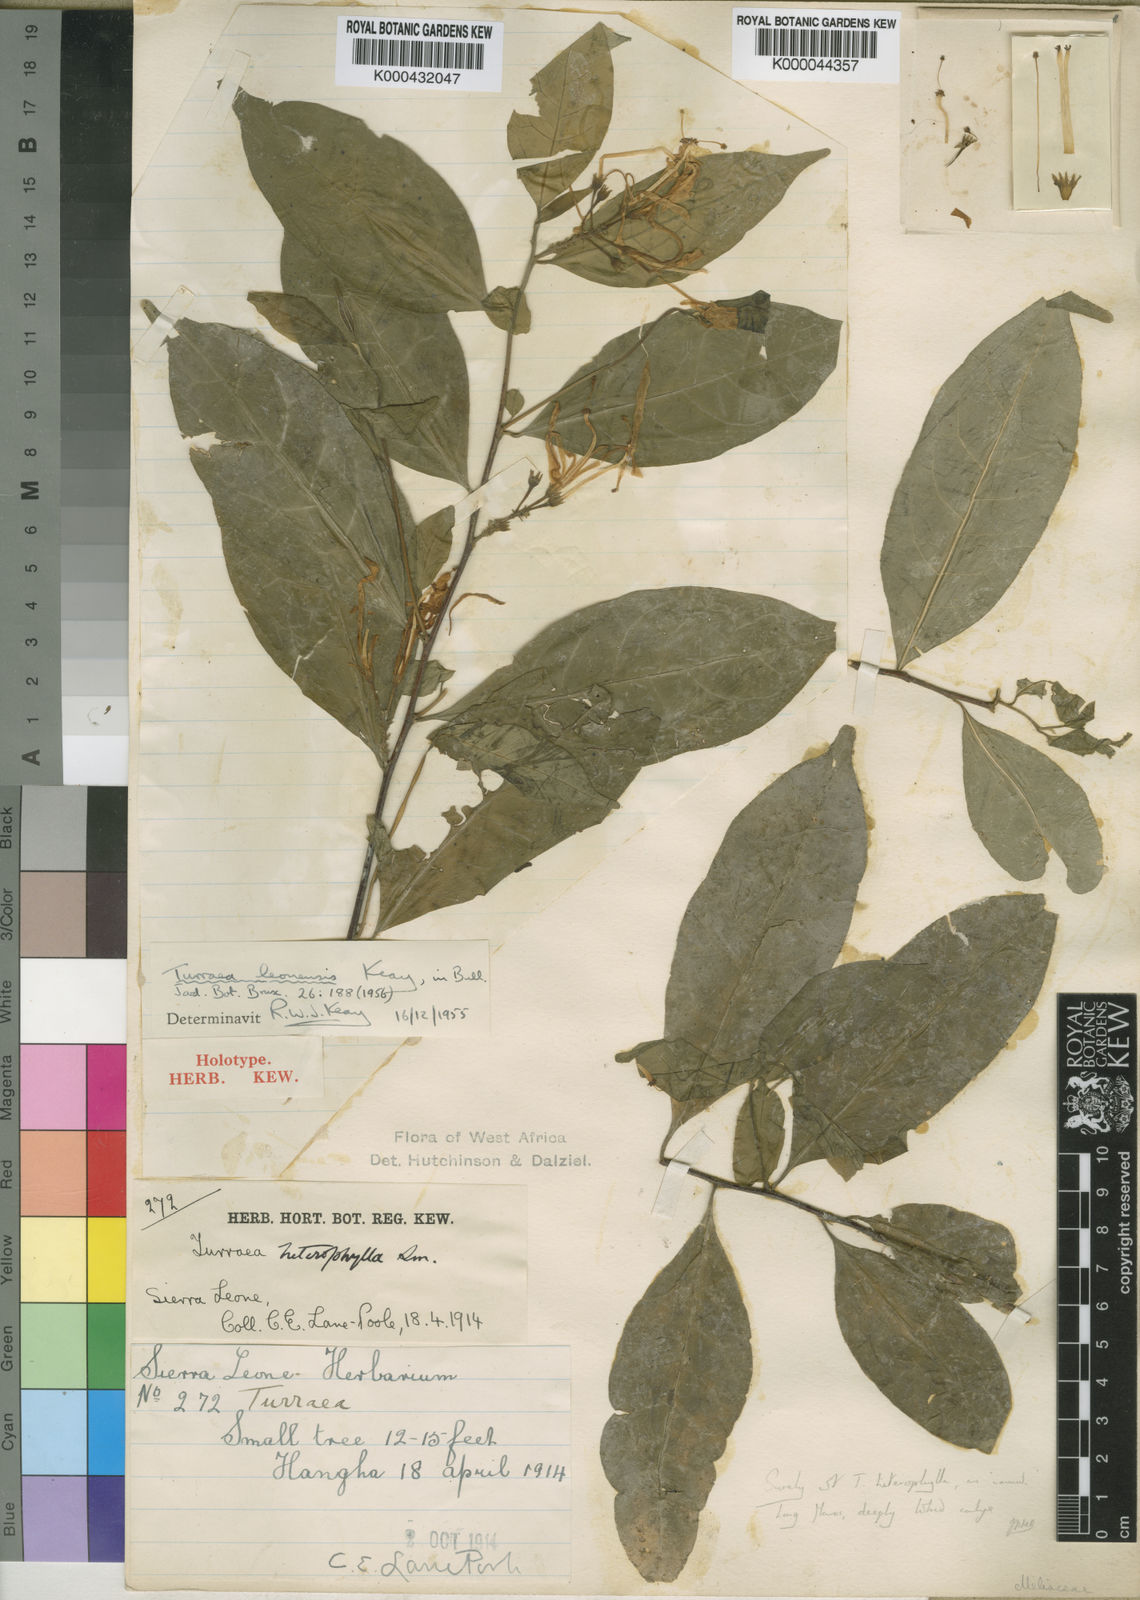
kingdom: Plantae
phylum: Tracheophyta
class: Magnoliopsida
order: Sapindales
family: Meliaceae
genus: Turraea
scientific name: Turraea leonensis
